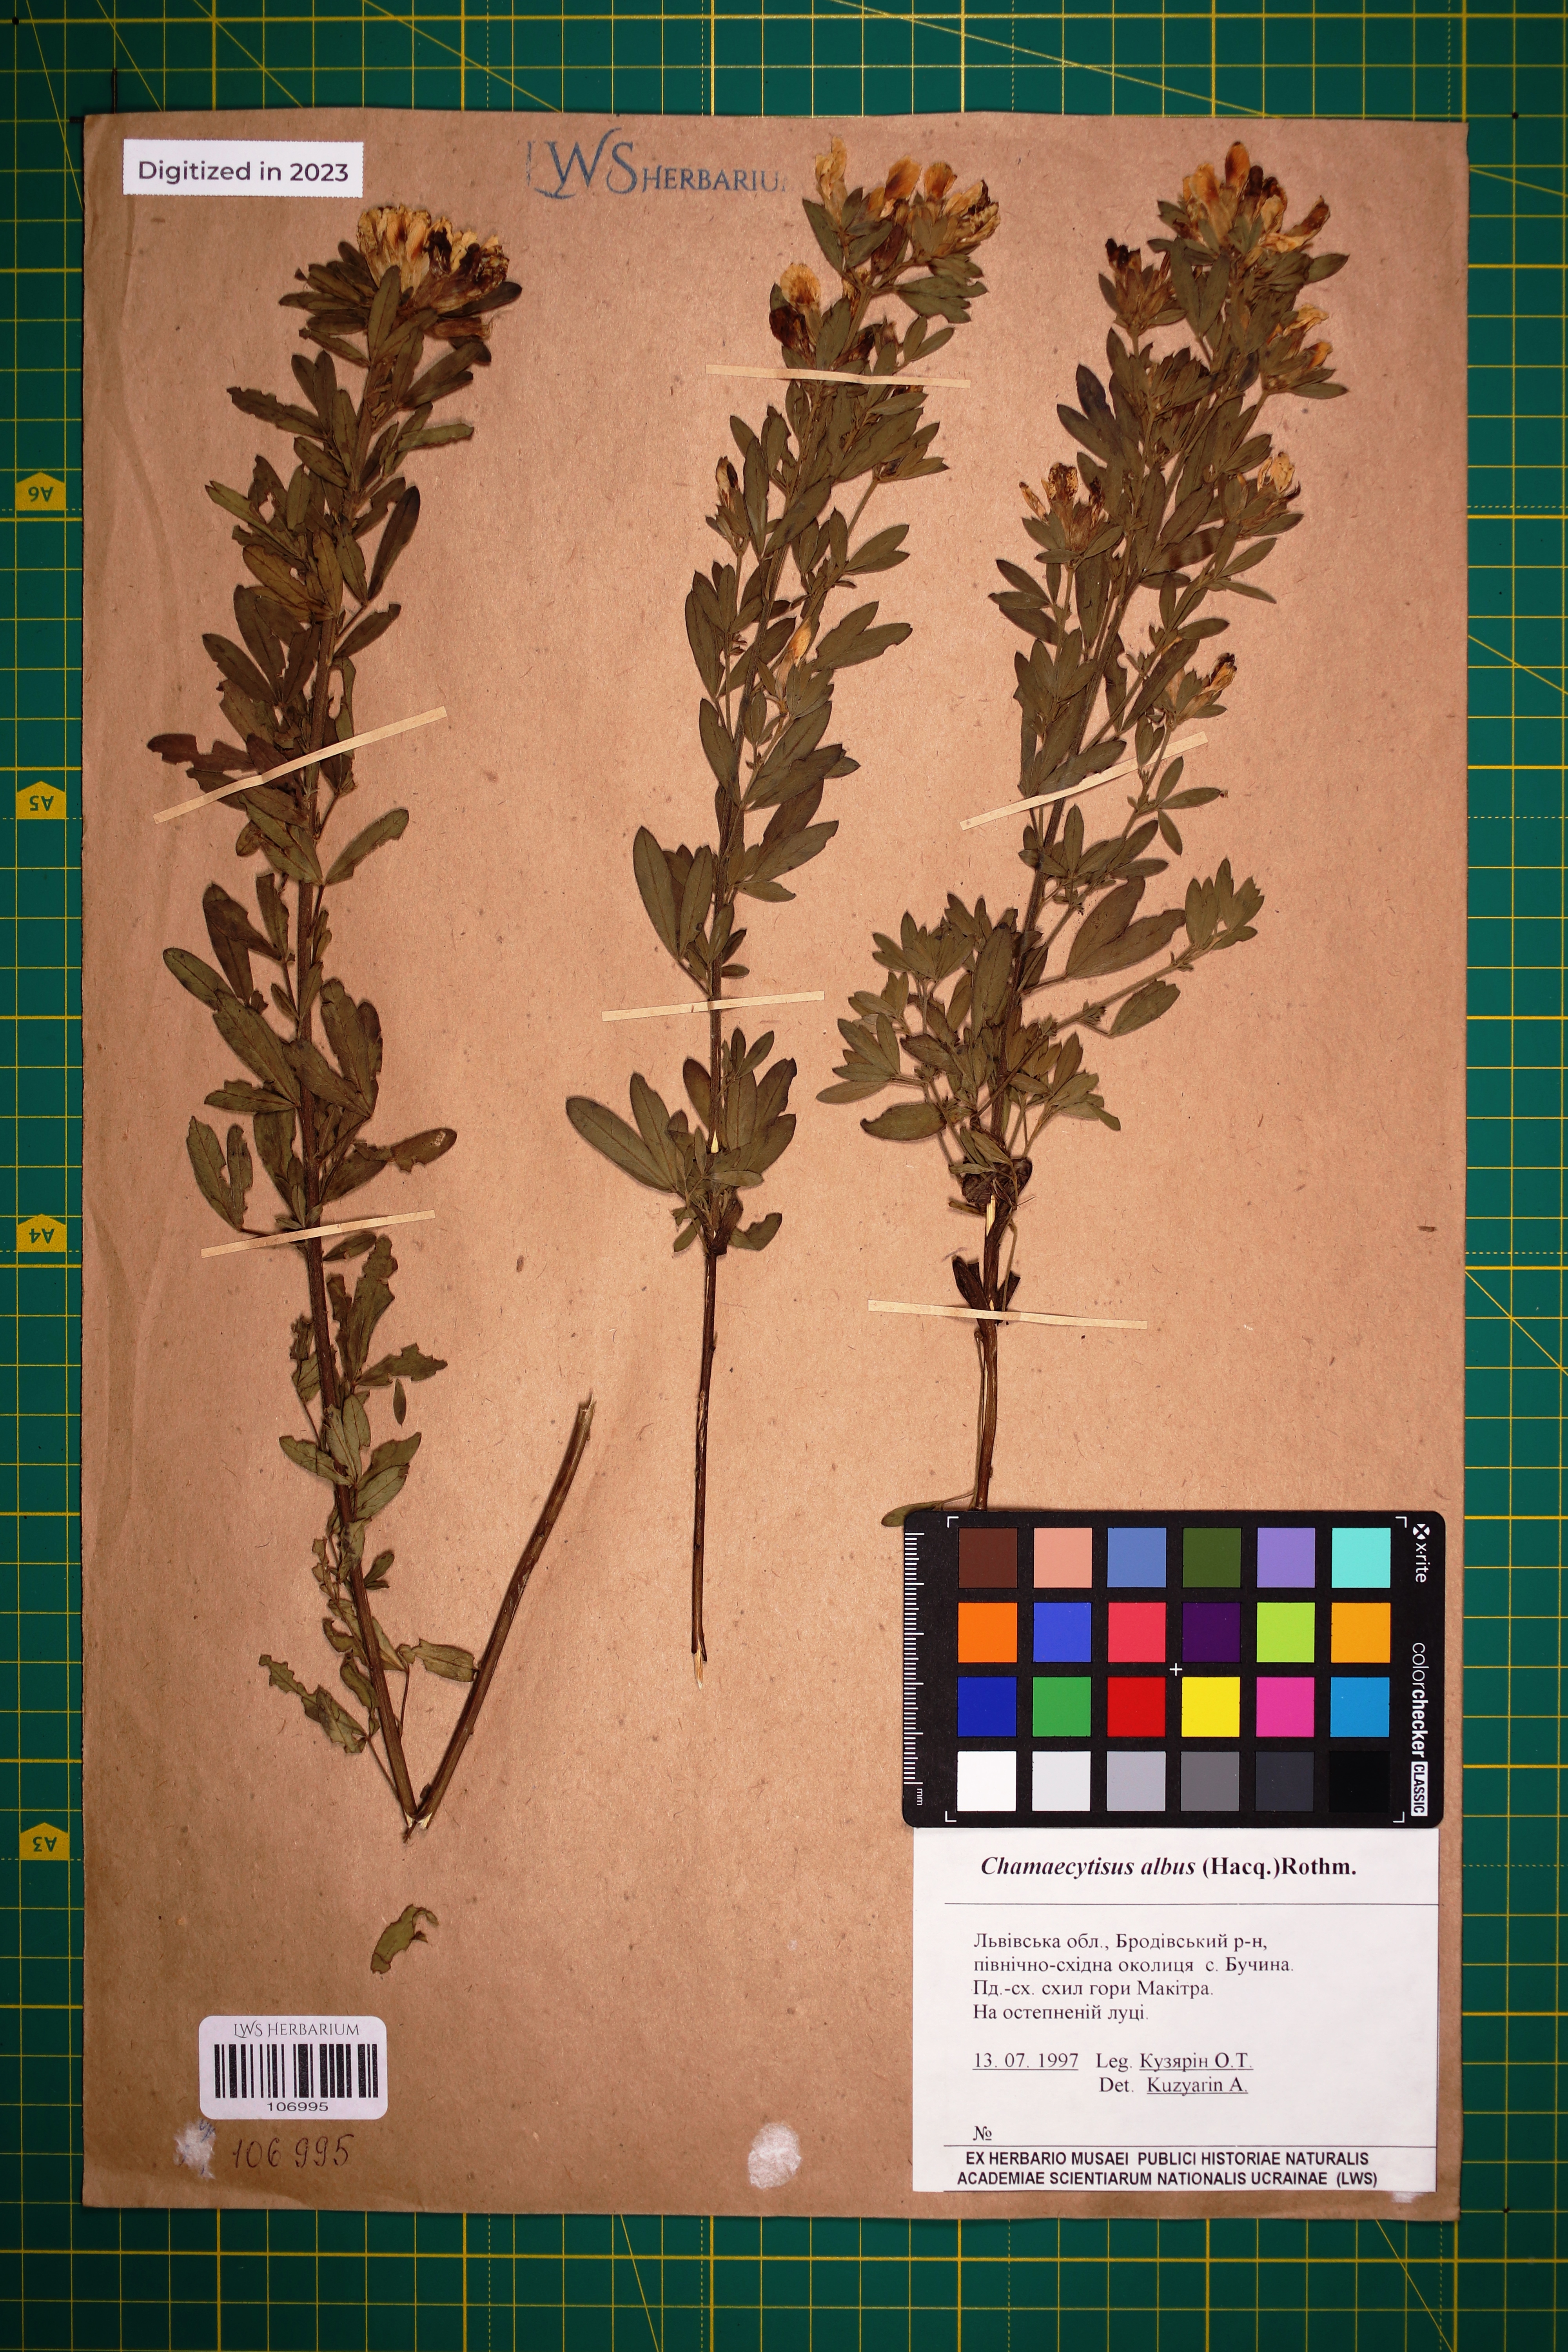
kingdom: Plantae
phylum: Tracheophyta
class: Magnoliopsida
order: Fabales
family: Fabaceae
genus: Chamaecytisus
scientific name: Chamaecytisus albus
